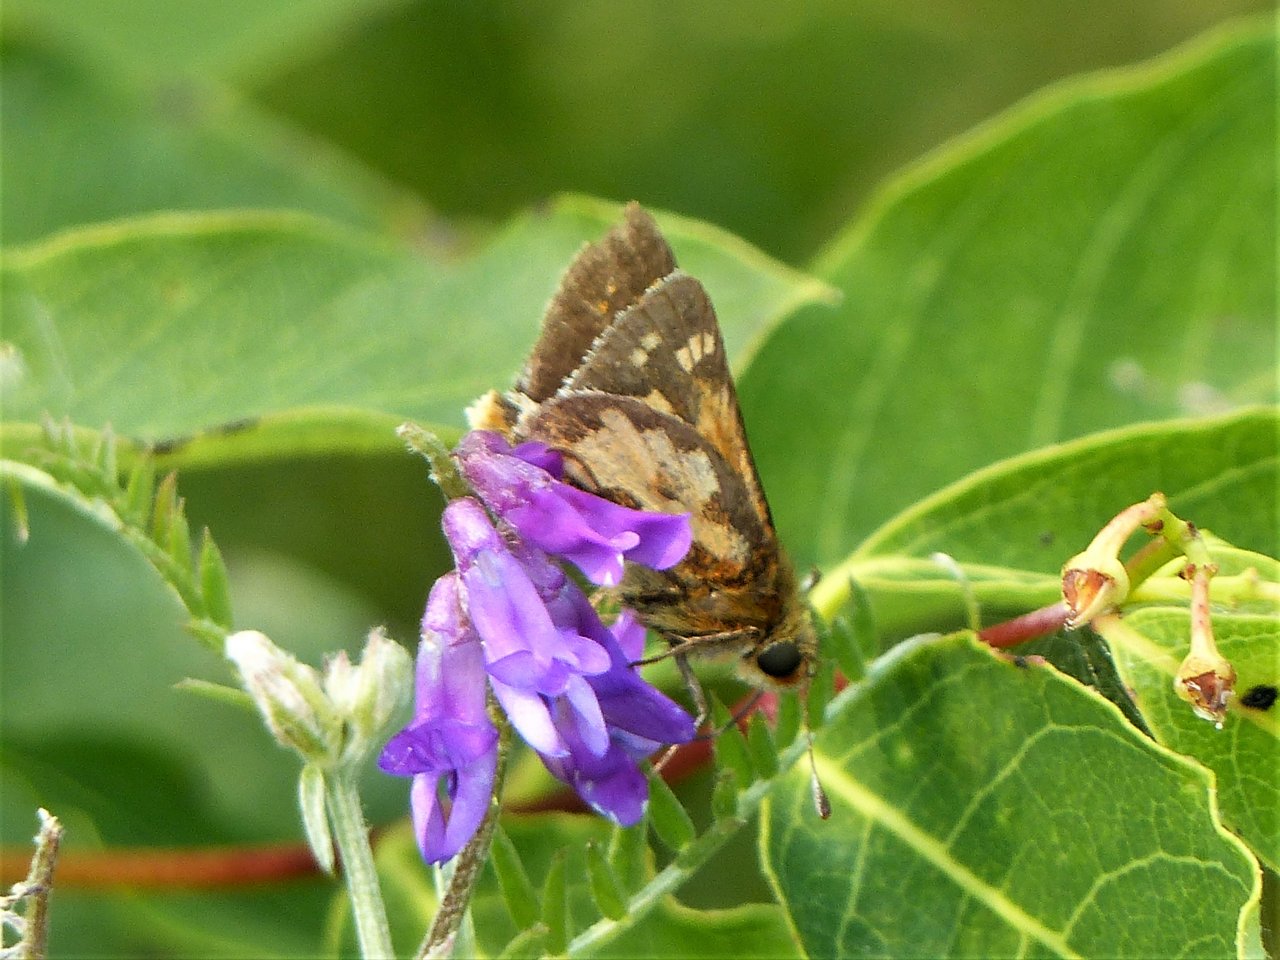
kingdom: Animalia
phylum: Arthropoda
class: Insecta
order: Lepidoptera
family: Hesperiidae
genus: Polites
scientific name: Polites coras
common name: Peck's Skipper
